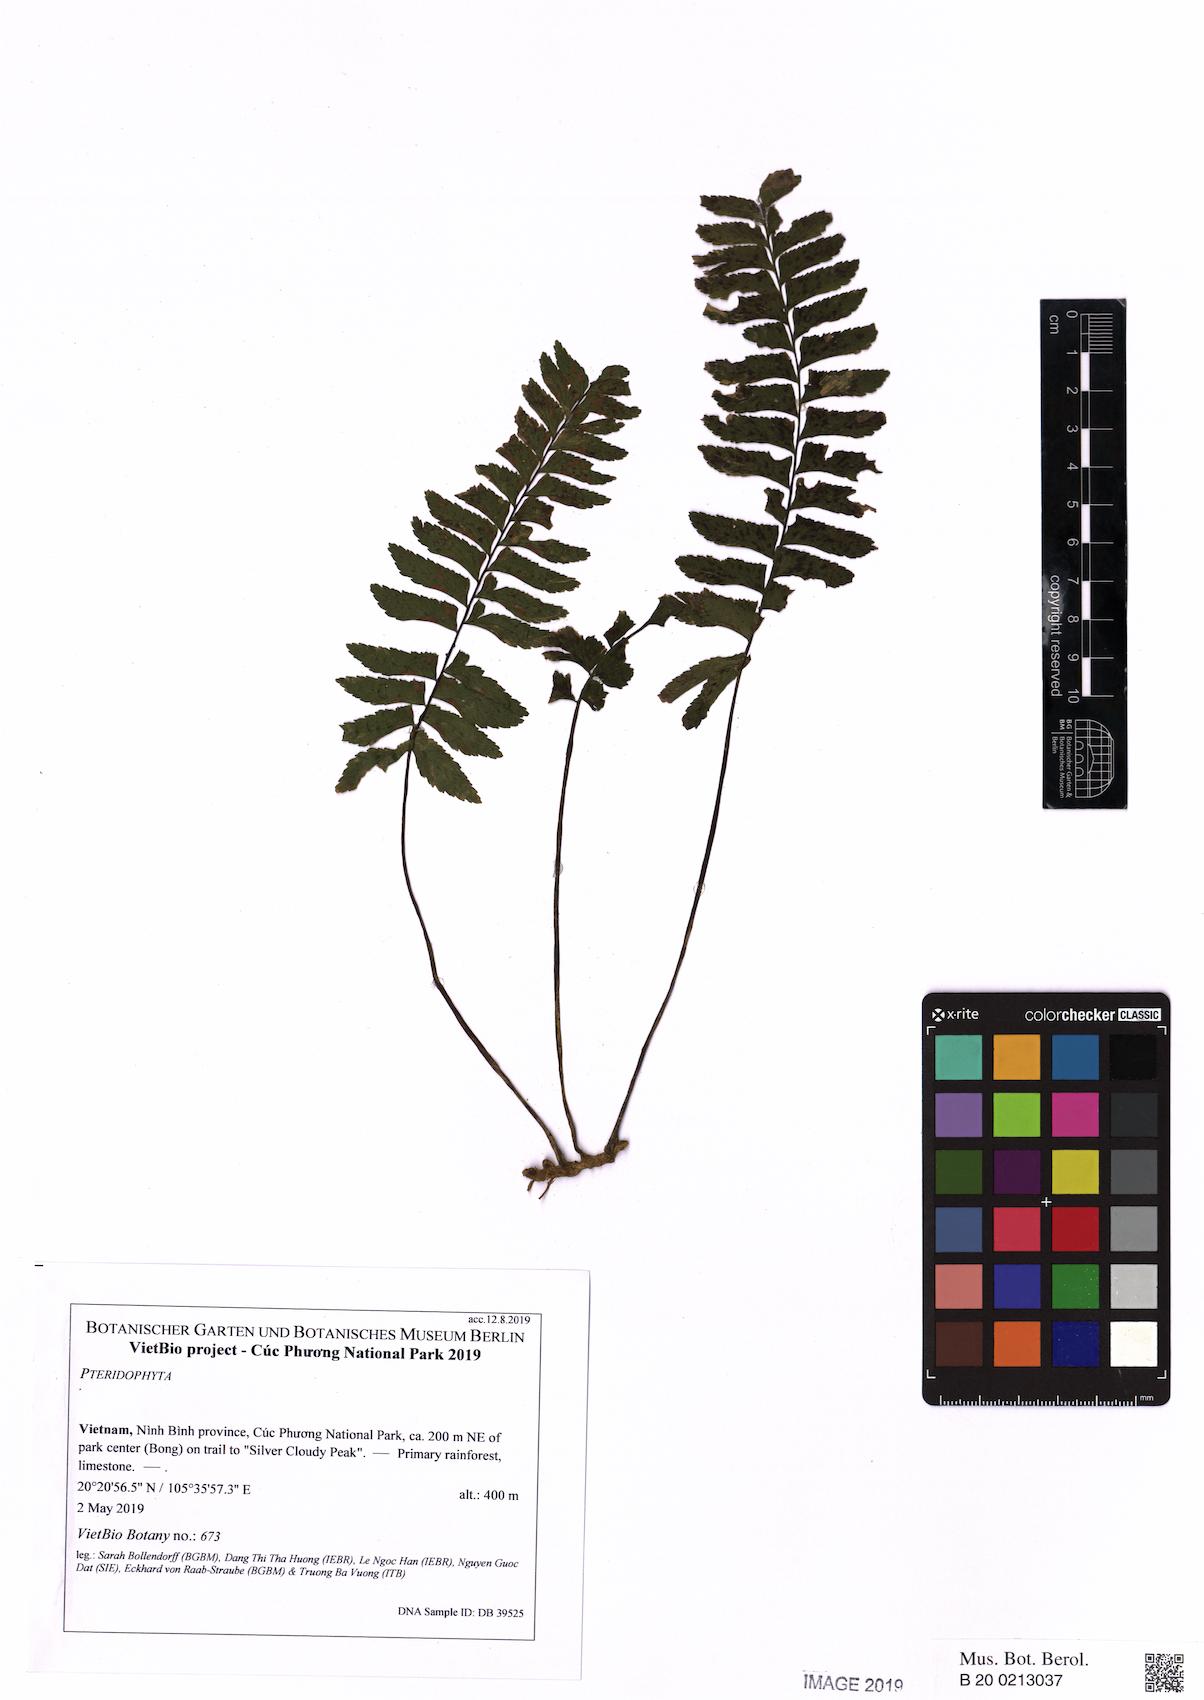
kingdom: Plantae
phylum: Tracheophyta
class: Polypodiopsida
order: Polypodiales
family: Aspleniaceae
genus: Hymenasplenium
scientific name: Hymenasplenium unilaterale
